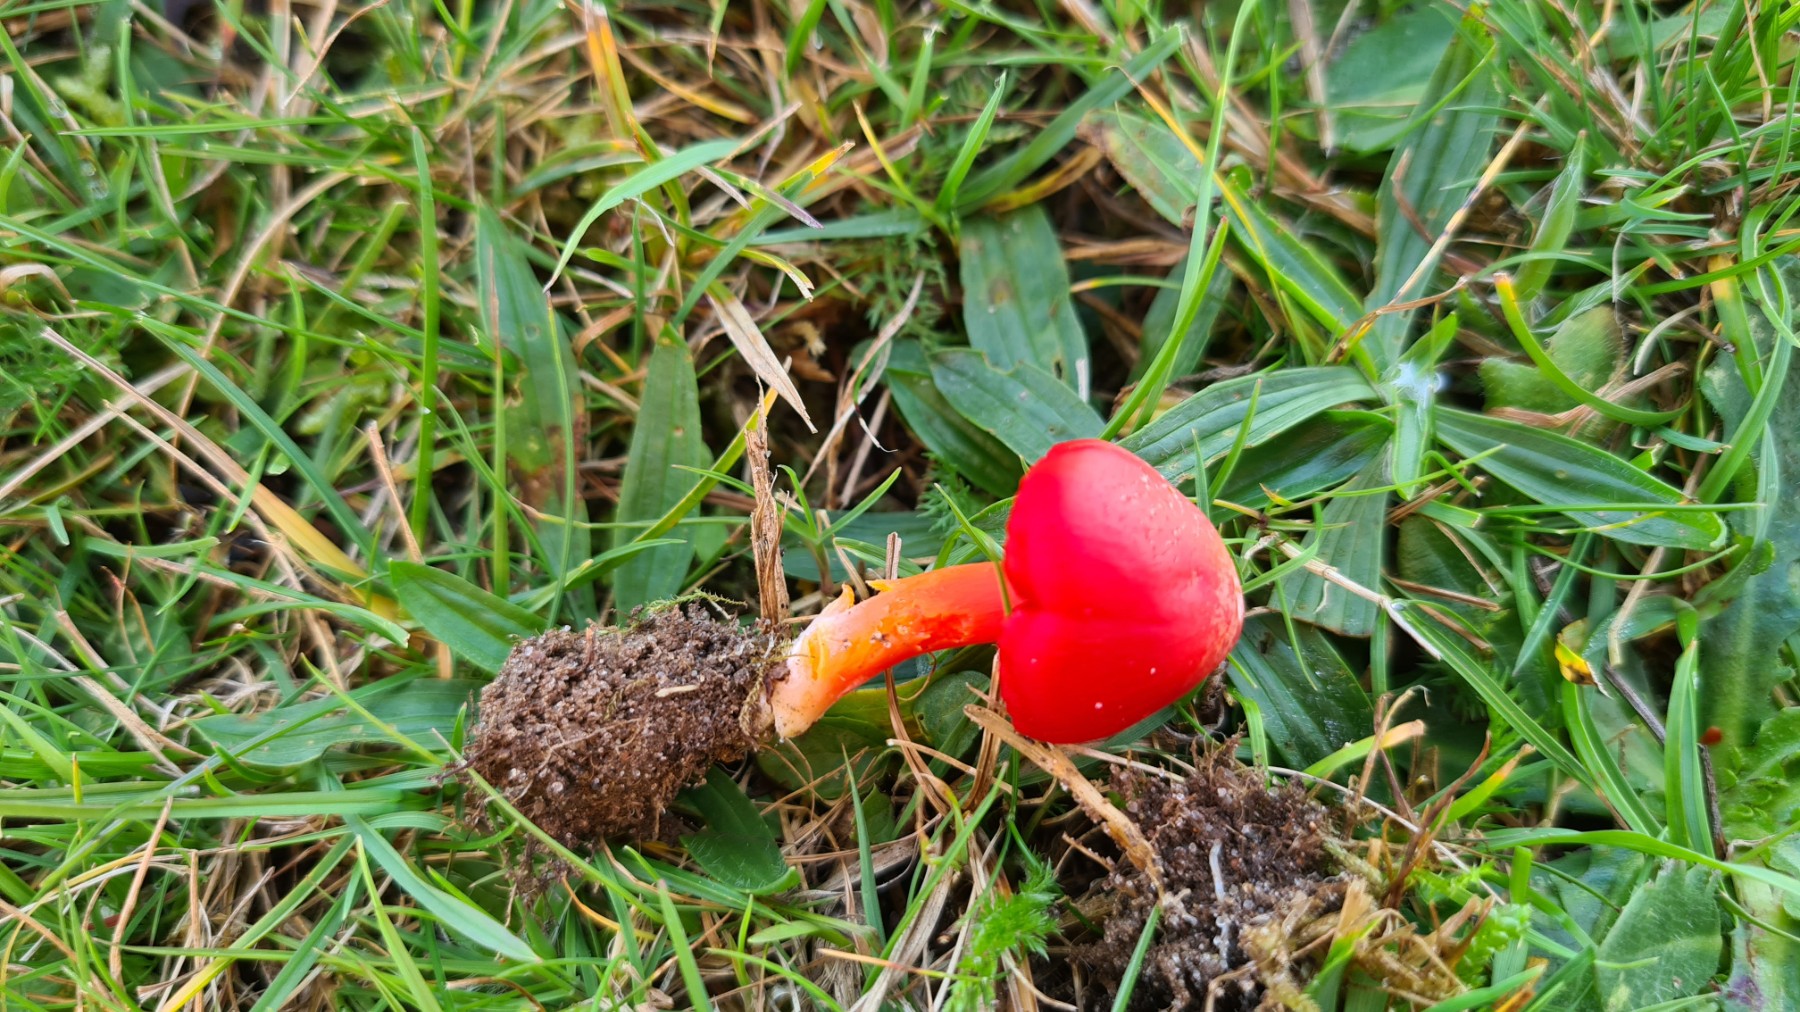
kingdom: Fungi
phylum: Basidiomycota
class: Agaricomycetes
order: Agaricales
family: Hygrophoraceae
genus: Hygrocybe
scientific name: Hygrocybe coccinea
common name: cinnober-vokshat
